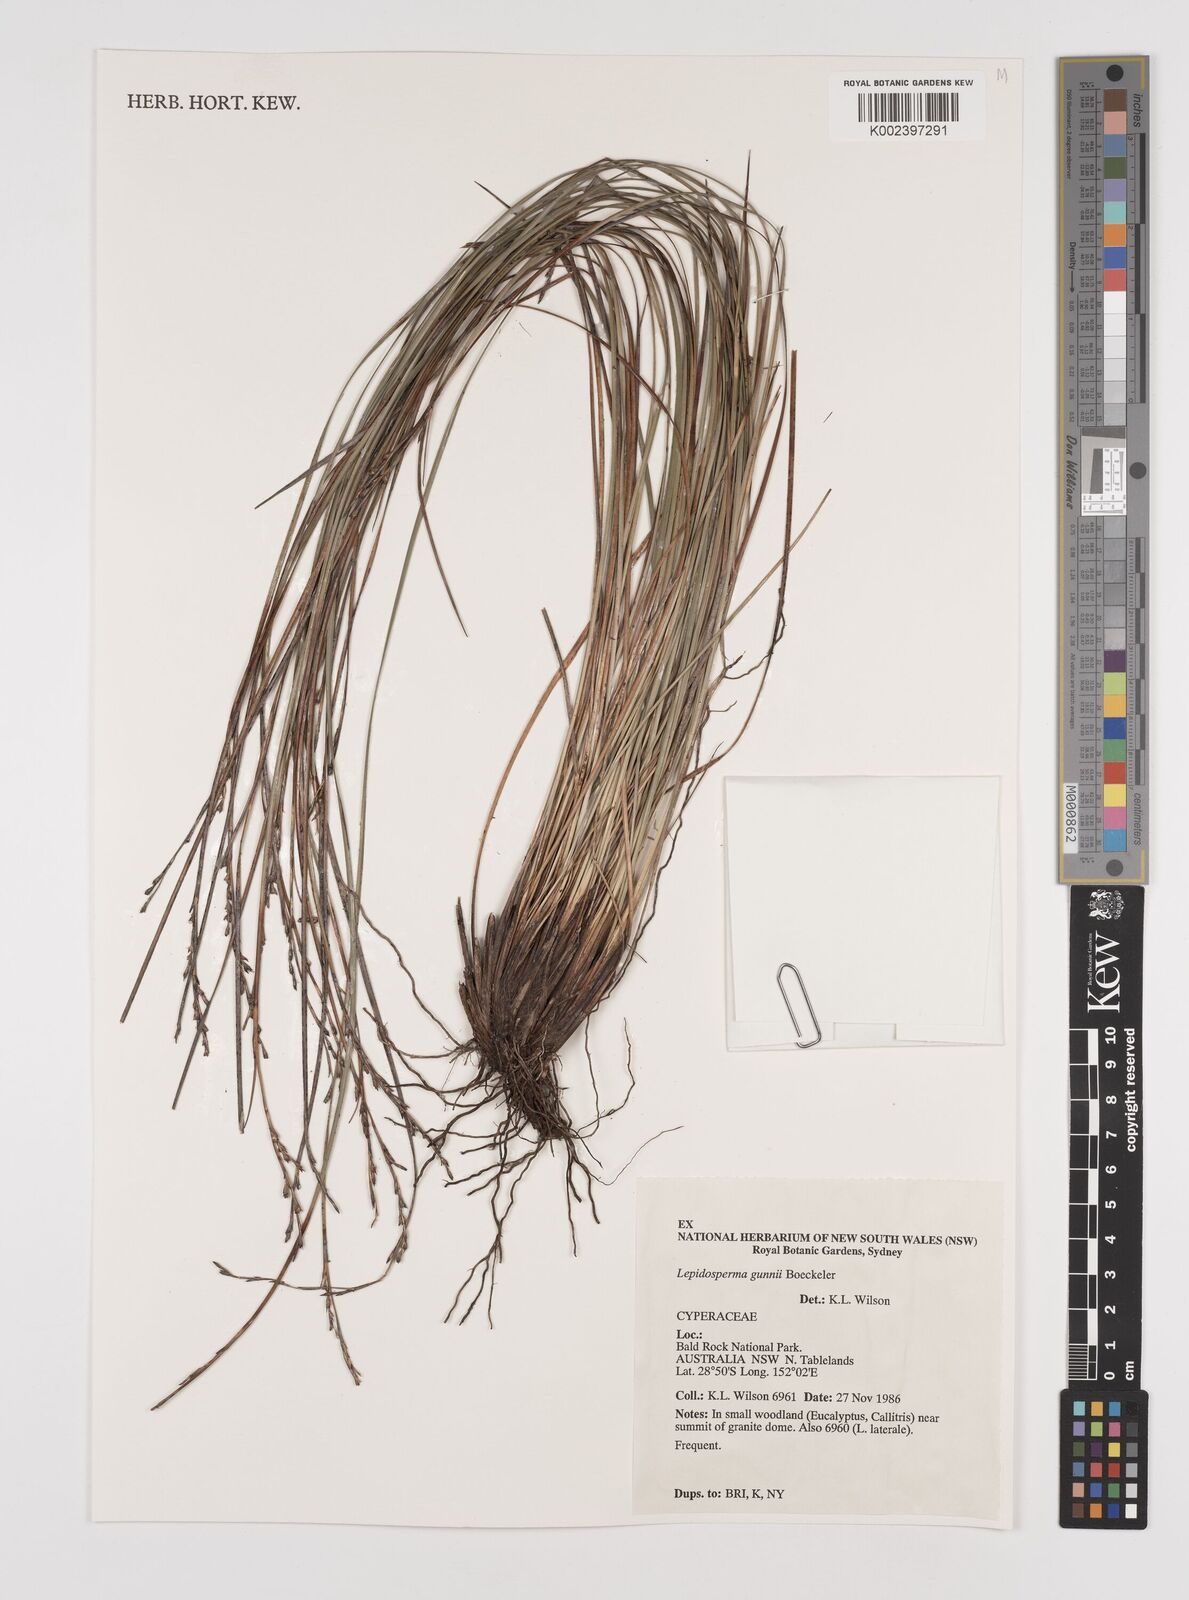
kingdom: Plantae
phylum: Tracheophyta
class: Liliopsida
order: Poales
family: Cyperaceae
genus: Lepidosperma
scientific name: Lepidosperma gunnii
